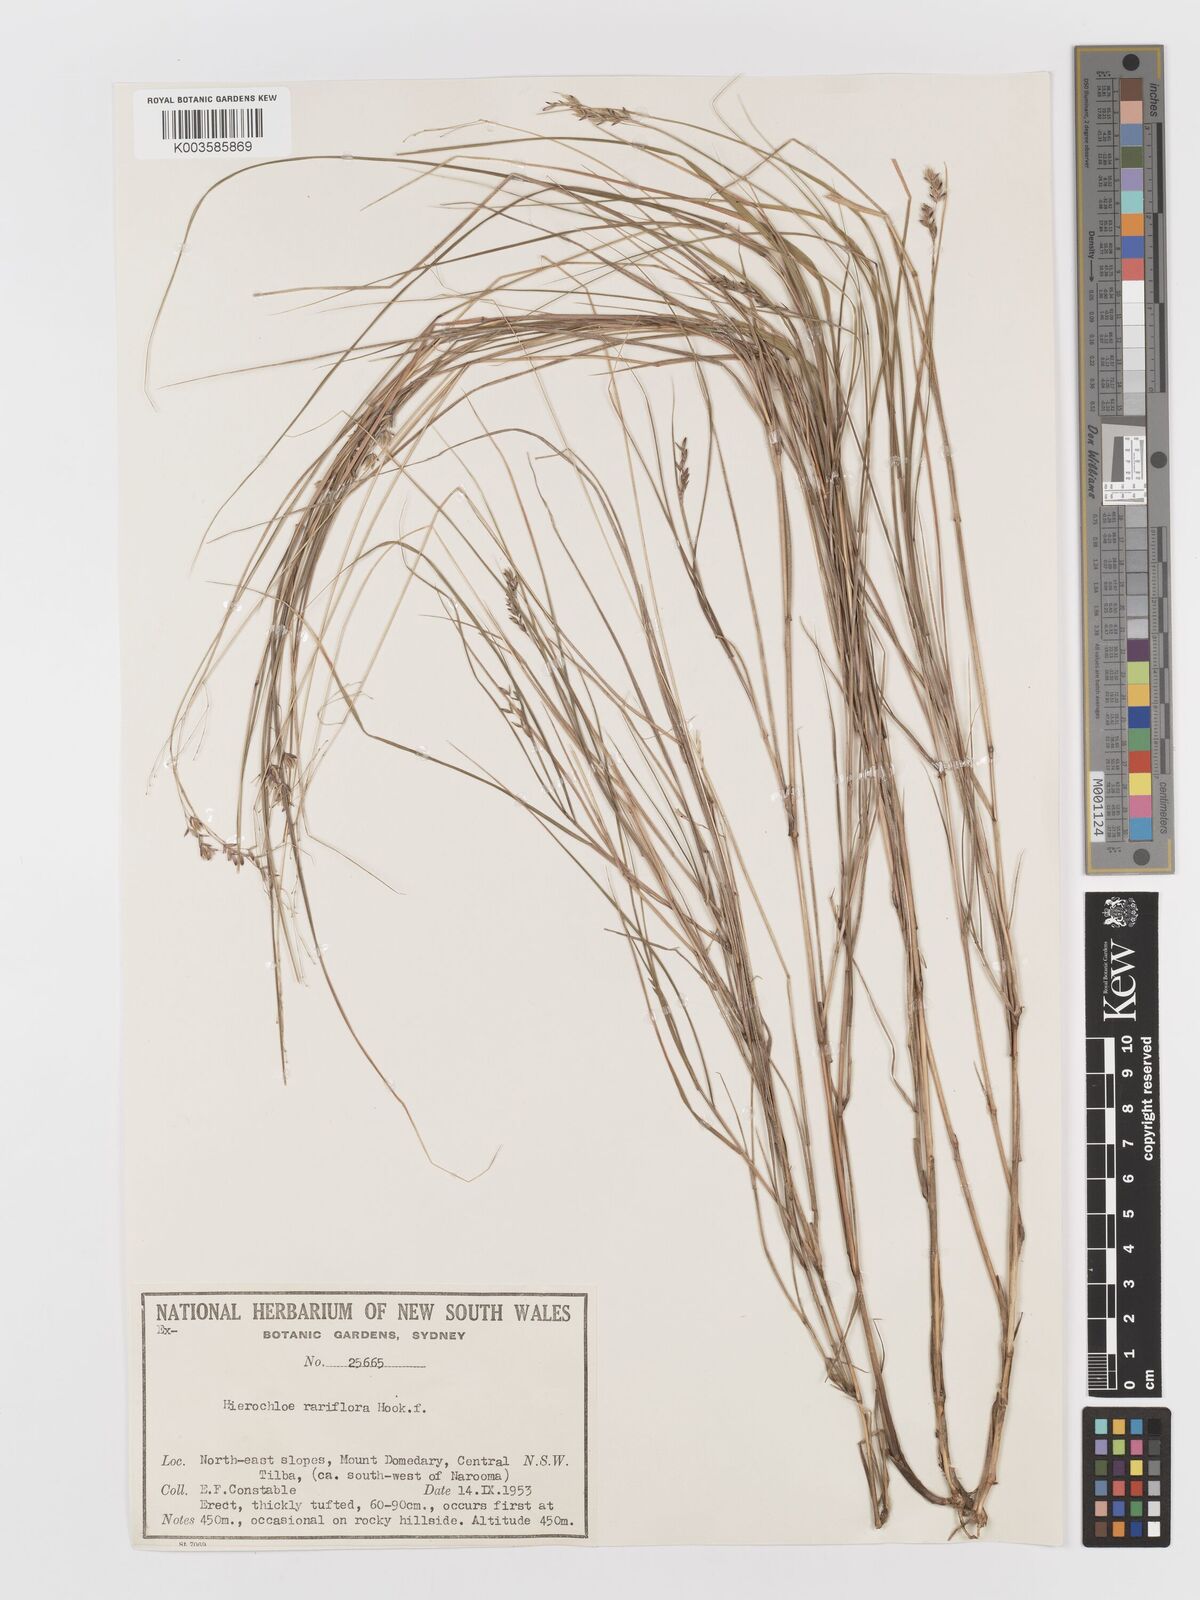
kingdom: Plantae
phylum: Tracheophyta
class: Liliopsida
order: Poales
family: Poaceae
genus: Anthoxanthum
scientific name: Anthoxanthum rariflorum
